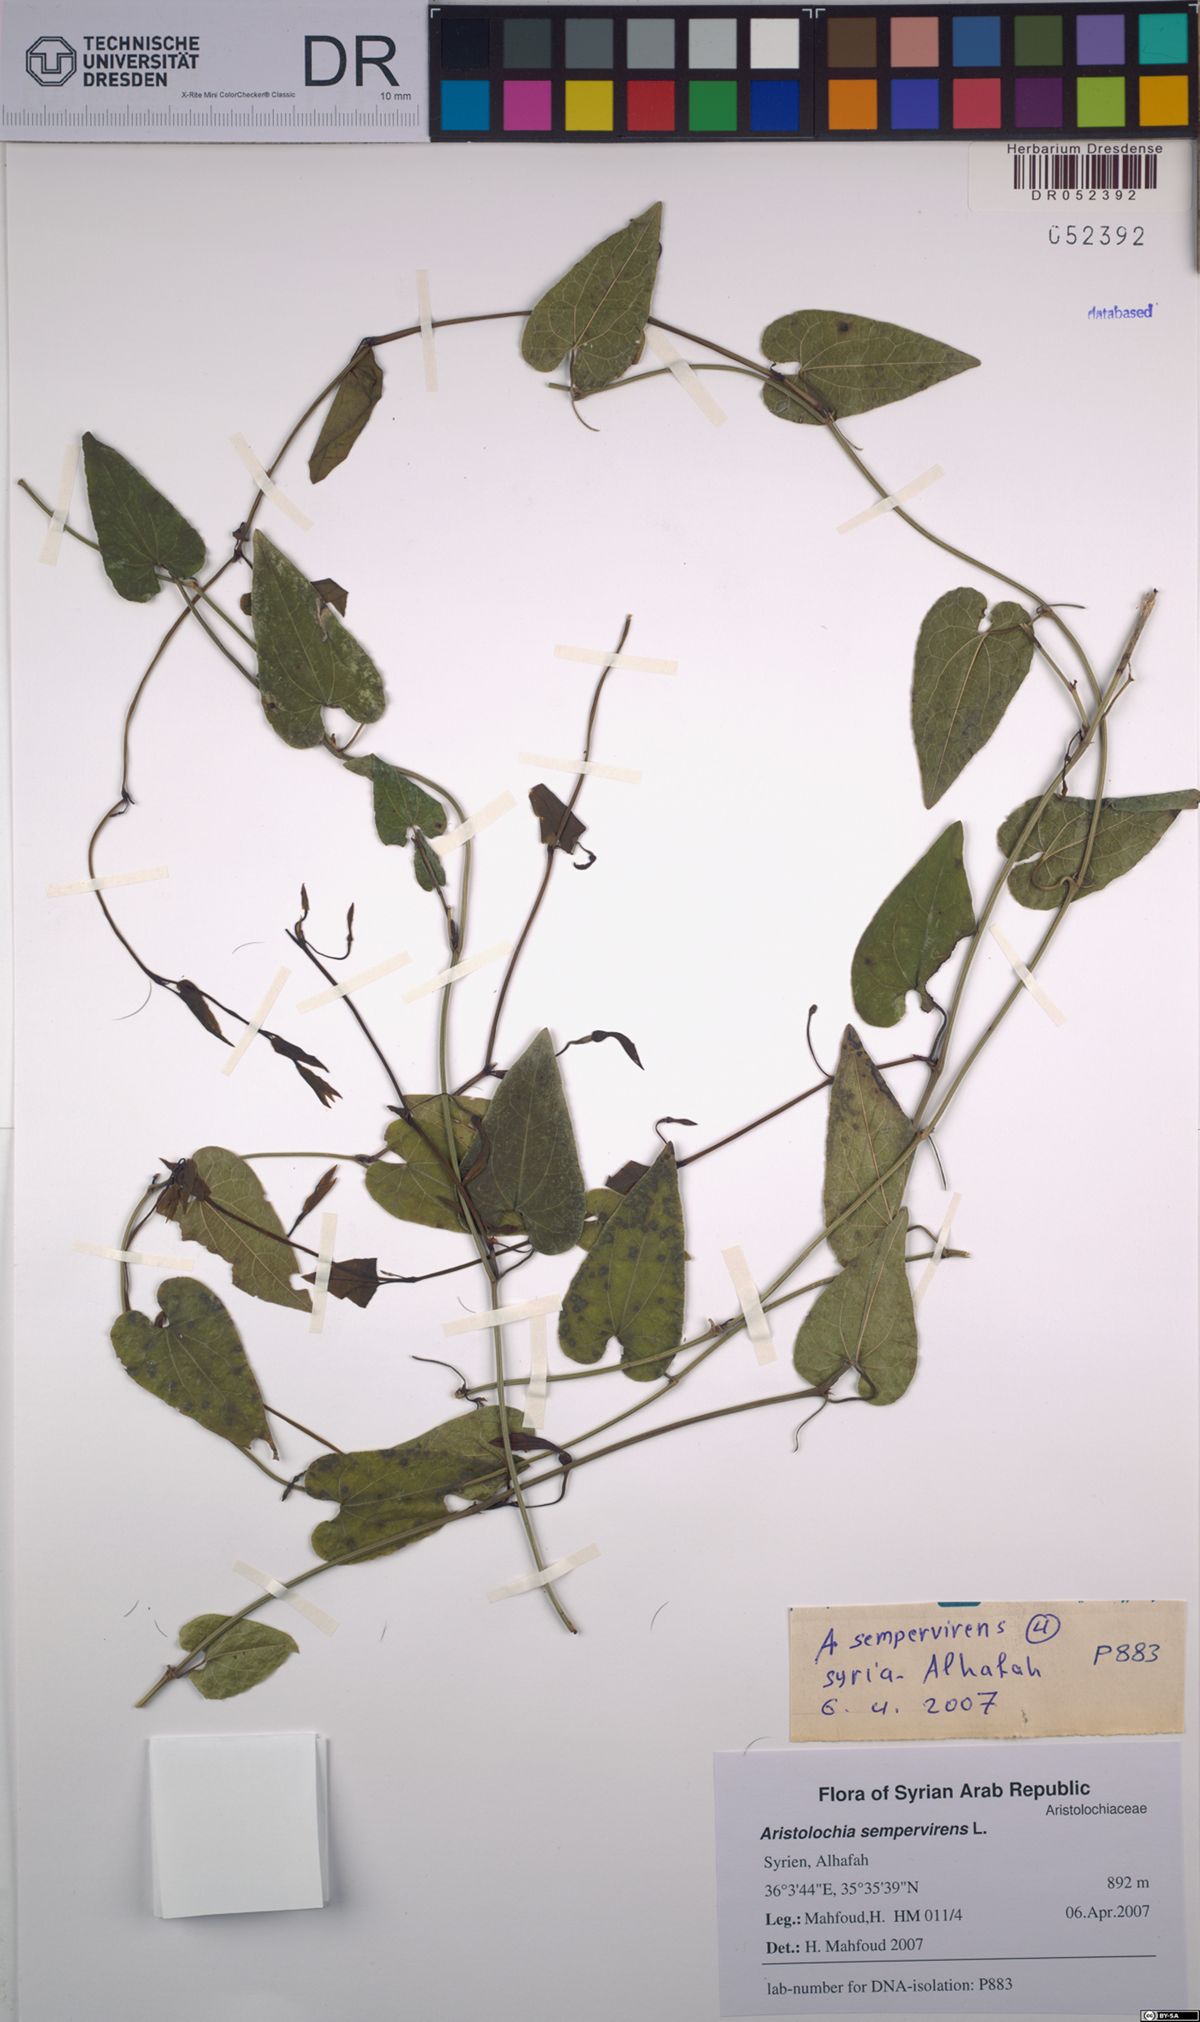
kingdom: Plantae
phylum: Tracheophyta
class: Magnoliopsida
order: Piperales
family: Aristolochiaceae
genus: Aristolochia
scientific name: Aristolochia sempervirens
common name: Long birthwort
